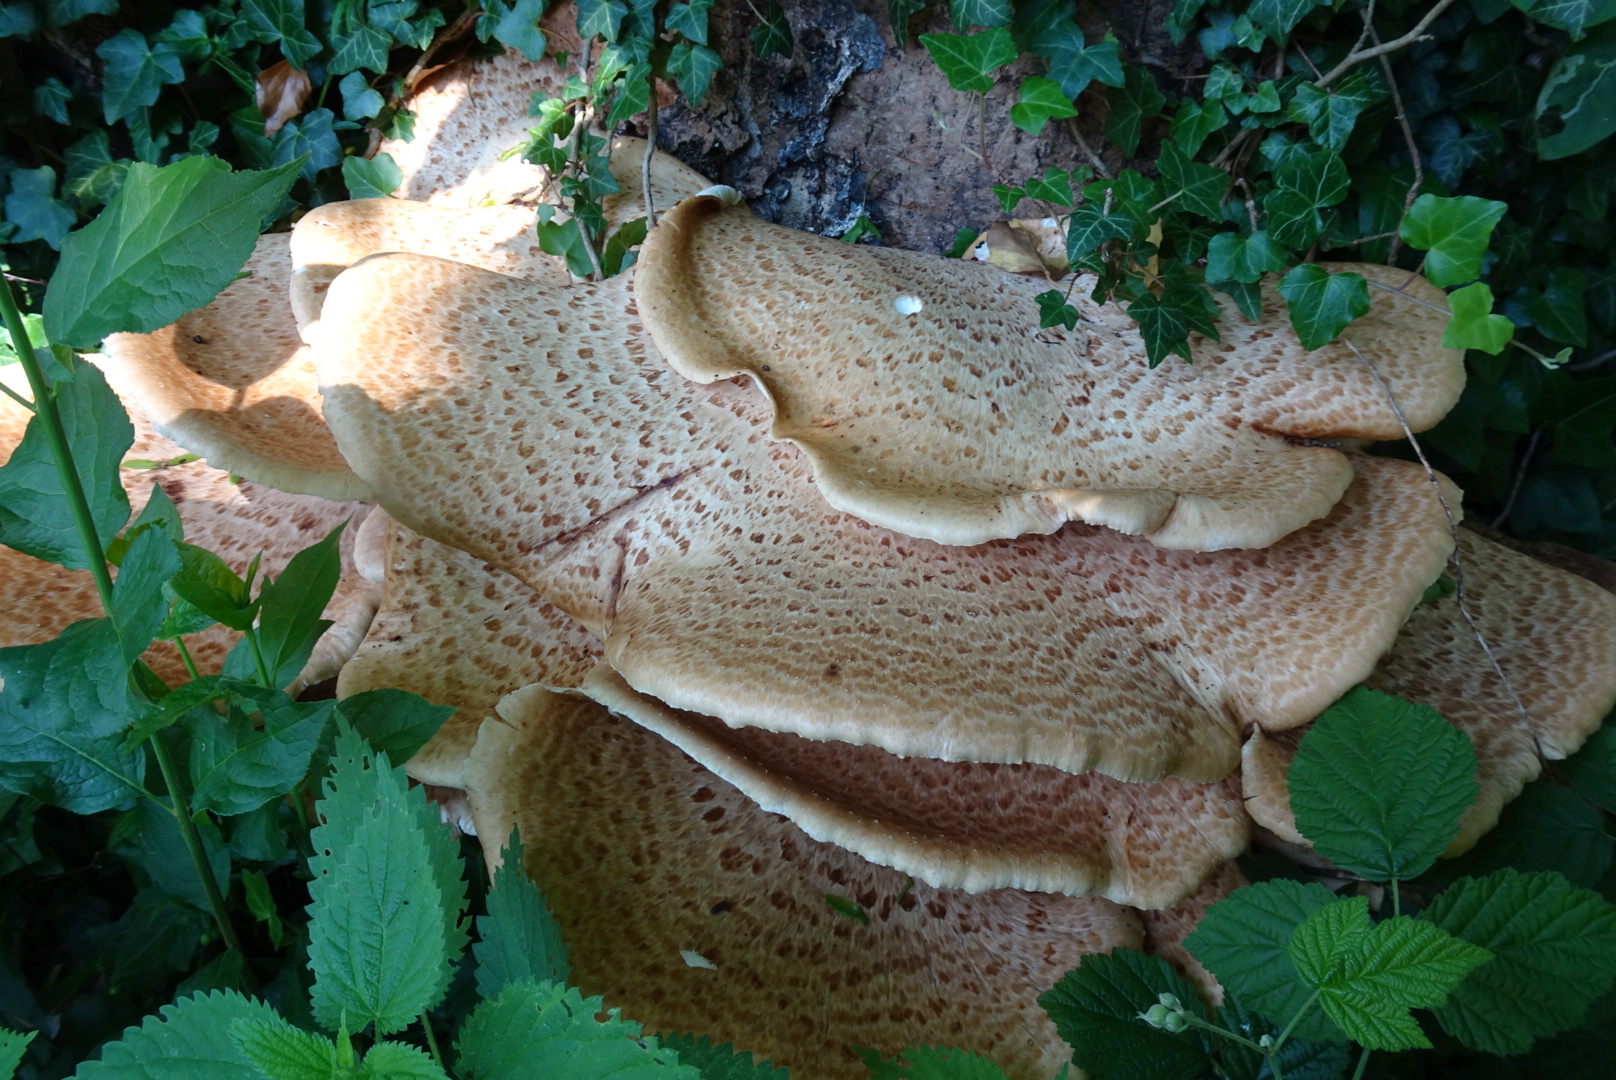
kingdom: Fungi
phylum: Basidiomycota
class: Agaricomycetes
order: Polyporales
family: Polyporaceae
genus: Cerioporus
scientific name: Cerioporus squamosus
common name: skællet stilkporesvamp
